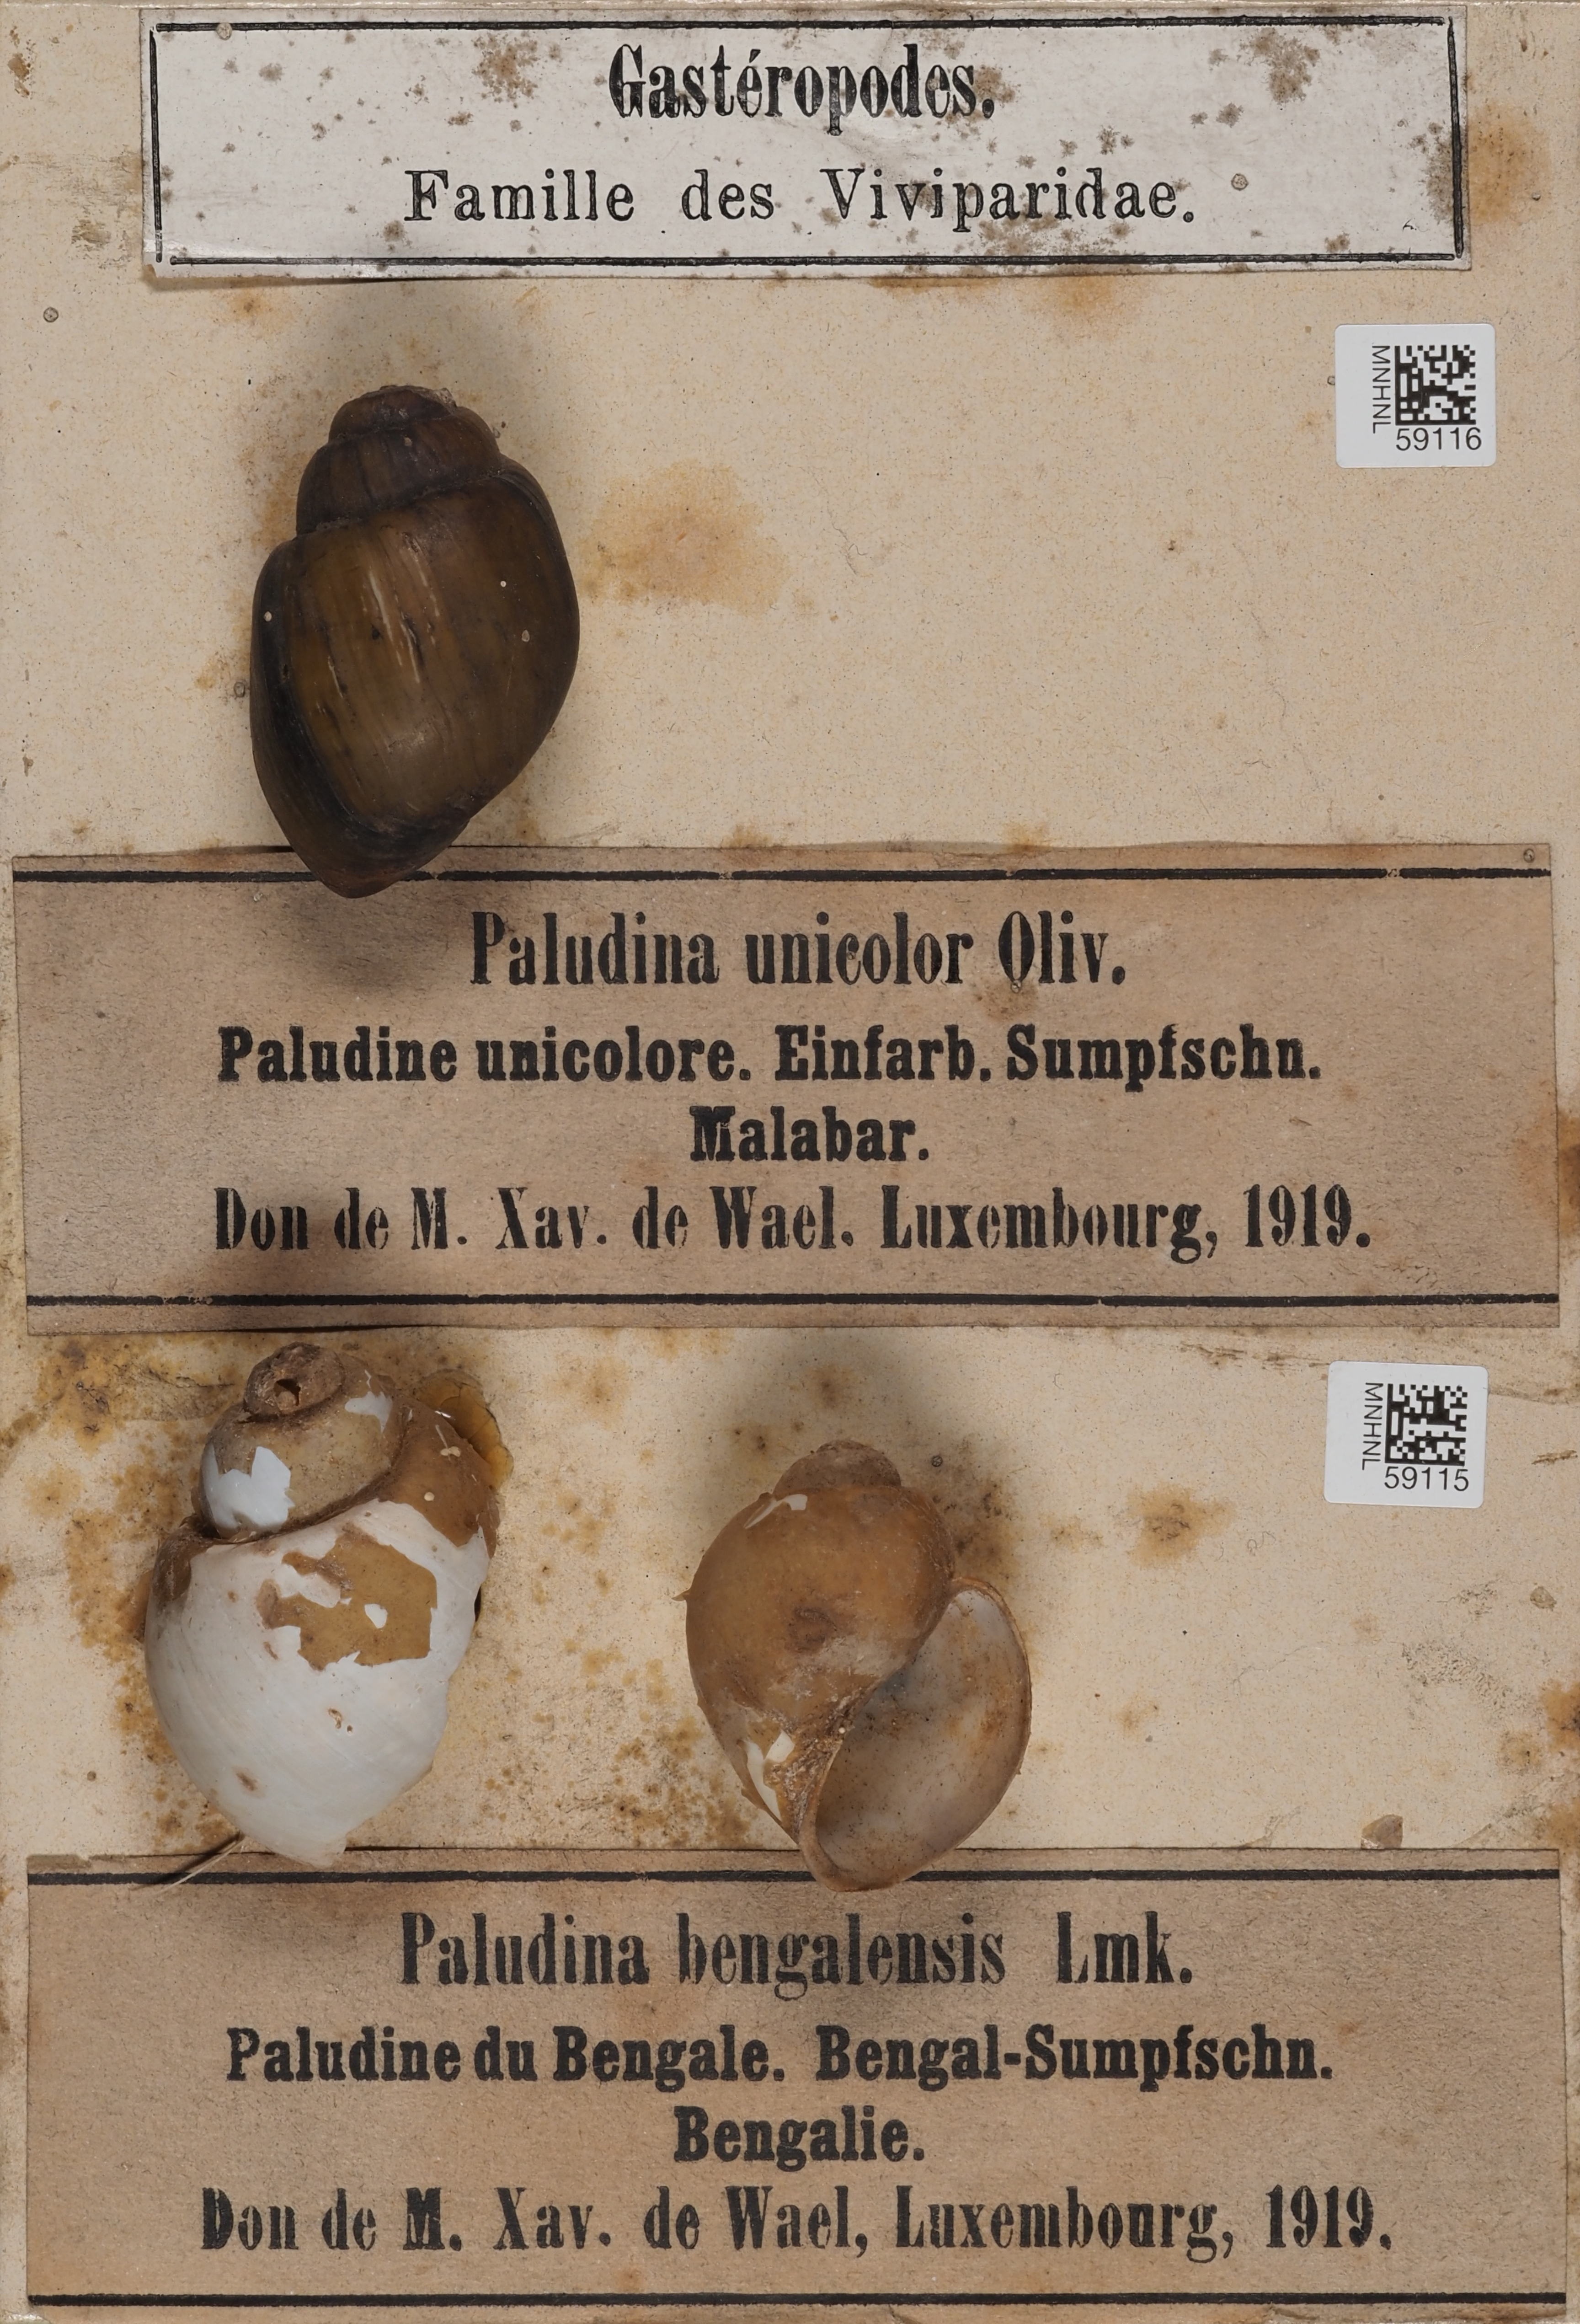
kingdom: Animalia
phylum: Mollusca
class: Gastropoda
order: Architaenioglossa
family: Viviparidae
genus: Filopaludina
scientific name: Filopaludina bengalensis
